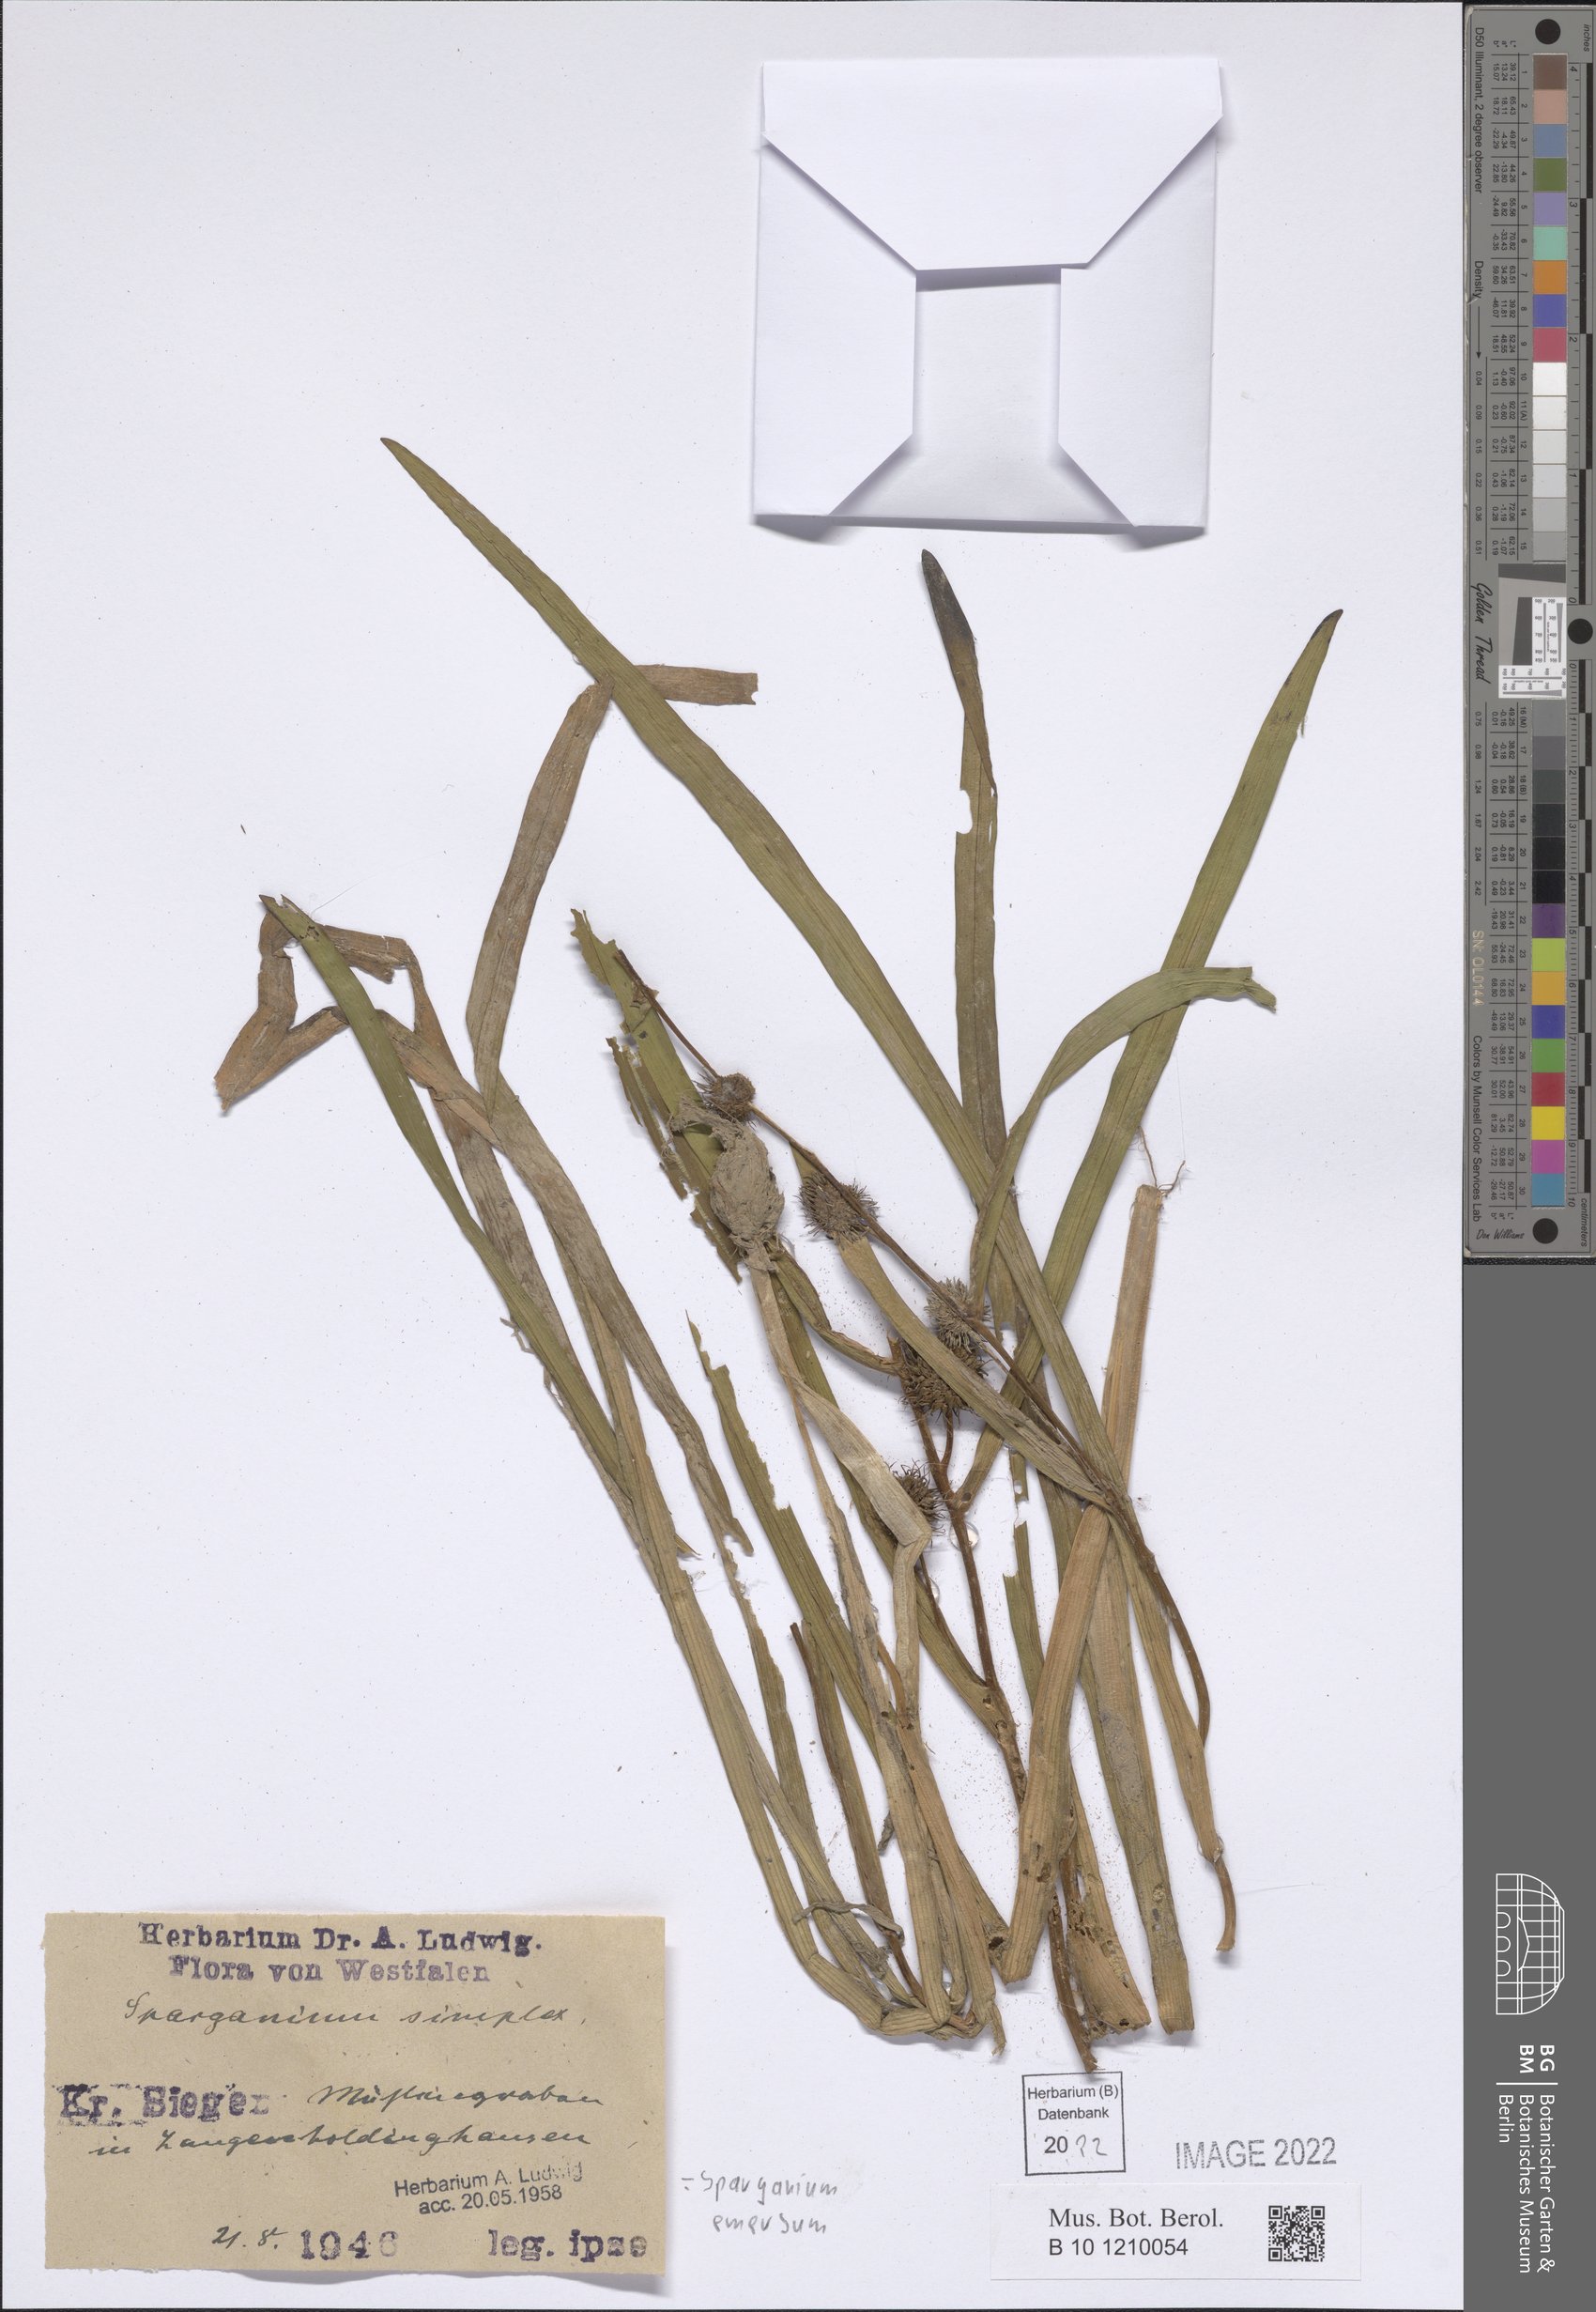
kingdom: Plantae
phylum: Tracheophyta
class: Liliopsida
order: Poales
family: Typhaceae
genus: Sparganium
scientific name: Sparganium emersum
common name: Unbranched bur-reed
